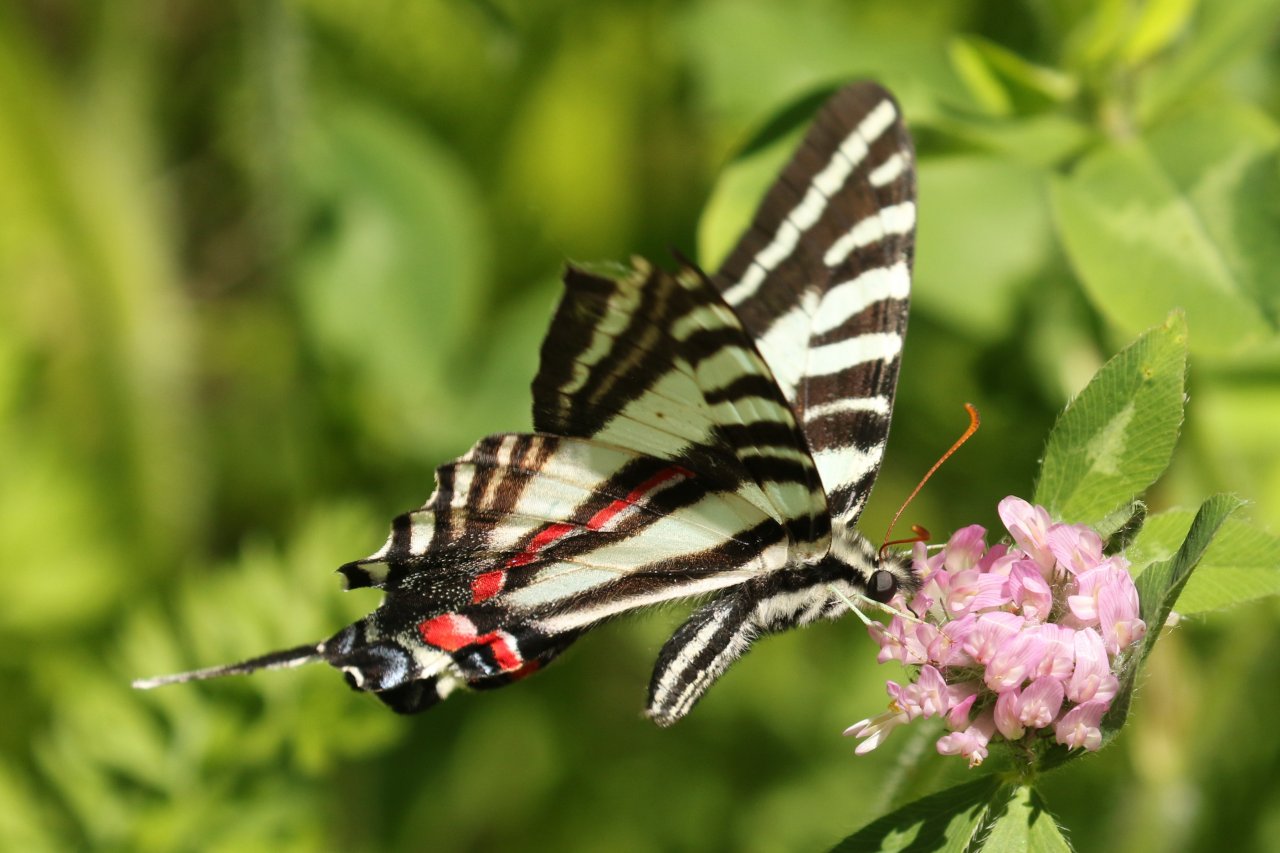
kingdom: Animalia
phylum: Arthropoda
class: Insecta
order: Lepidoptera
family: Papilionidae
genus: Protographium
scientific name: Protographium marcellus
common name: Zebra Swallowtail
